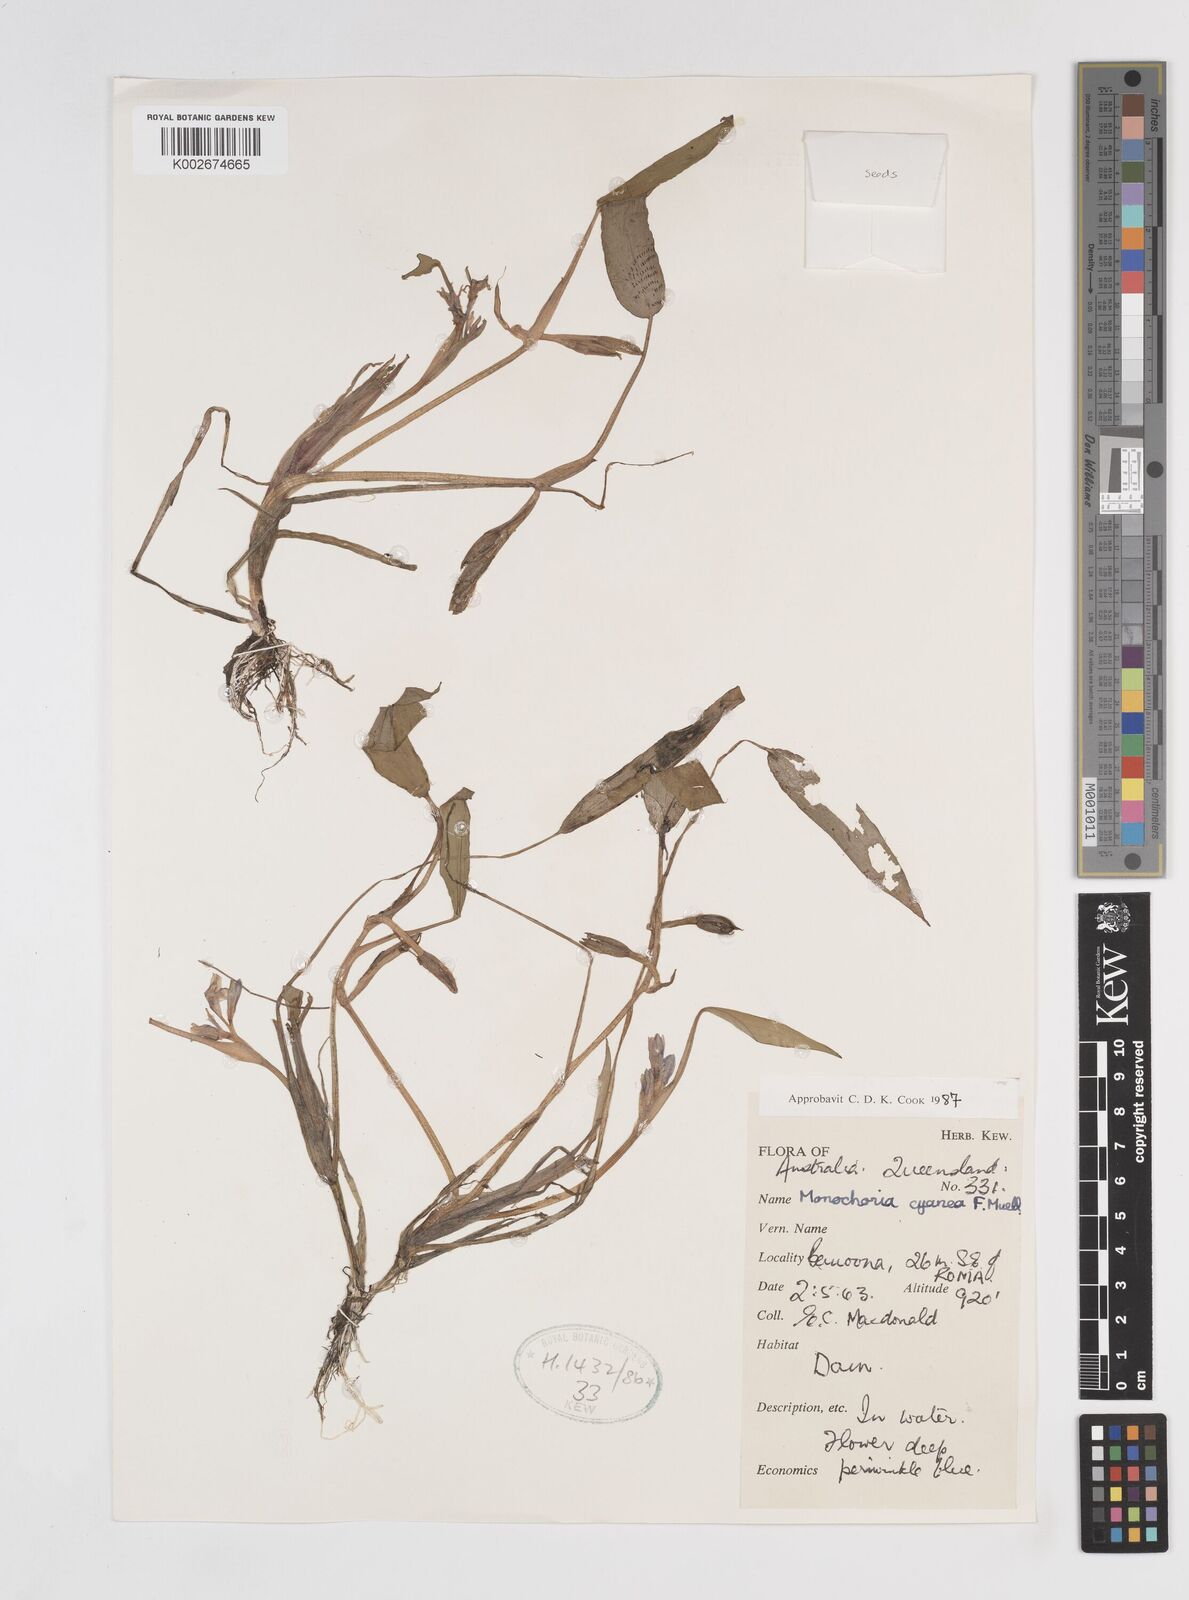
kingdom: Plantae
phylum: Tracheophyta
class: Liliopsida
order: Commelinales
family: Pontederiaceae
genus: Pontederia
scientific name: Pontederia cyanea
